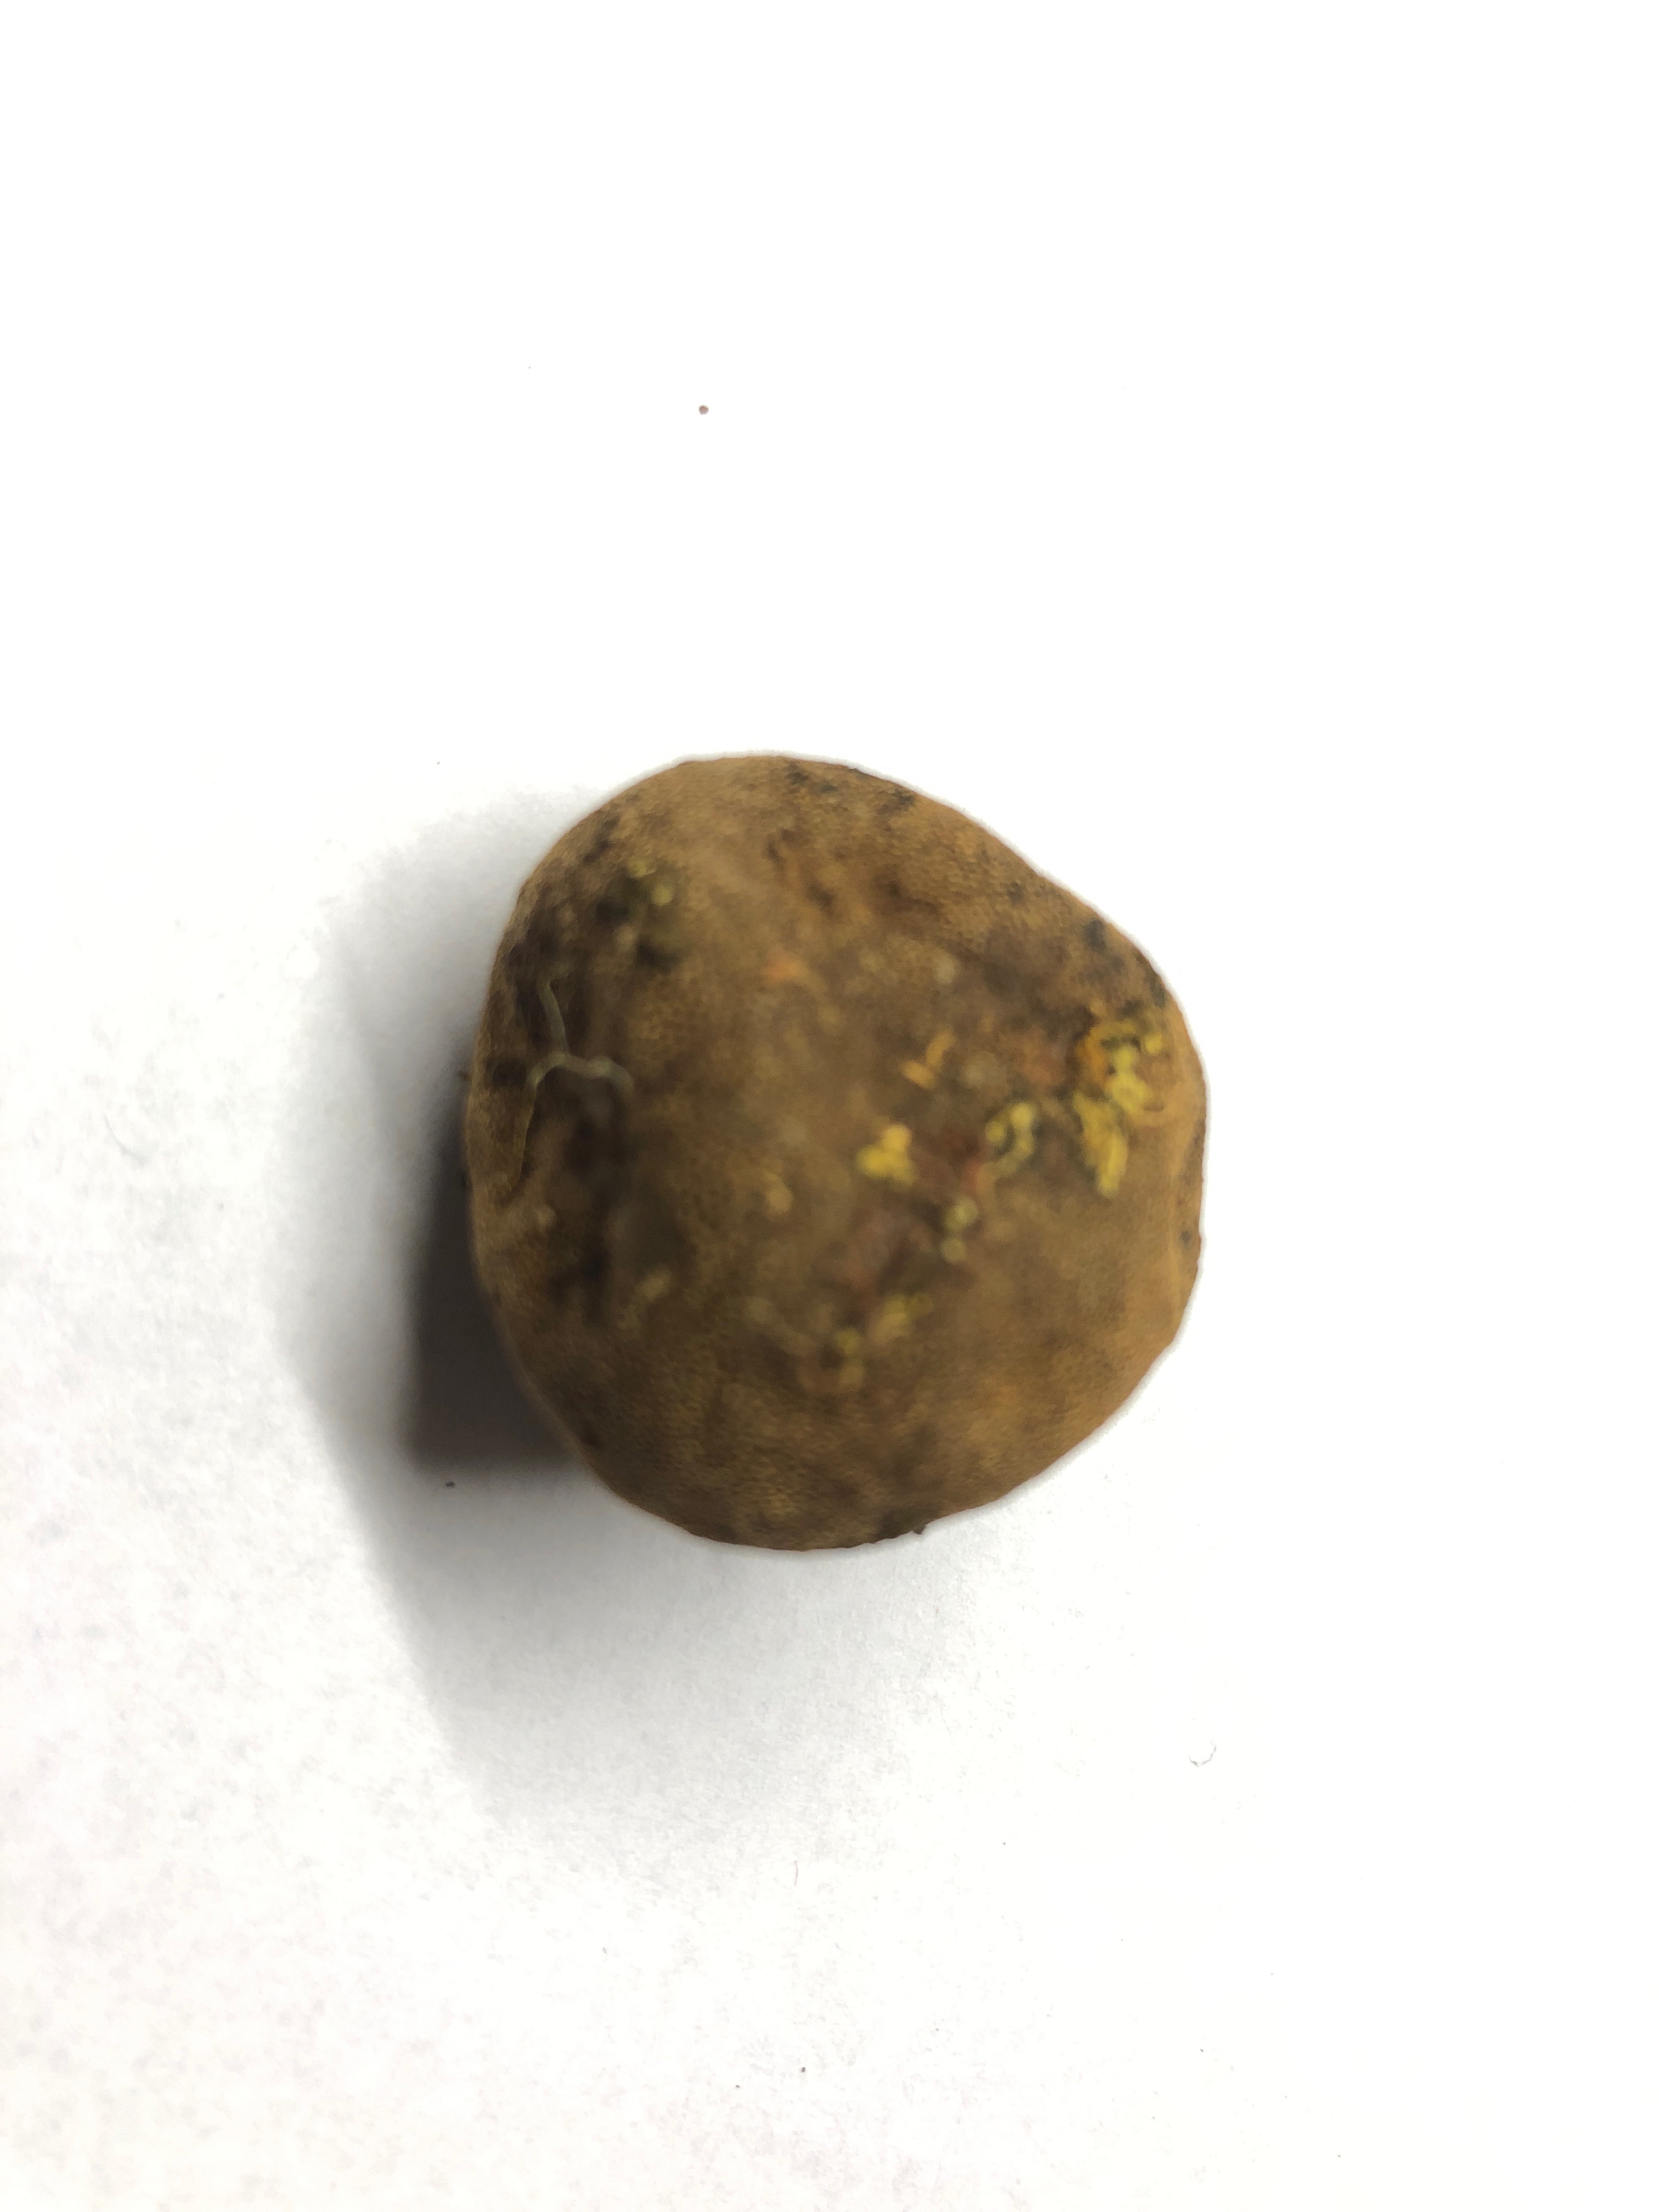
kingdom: Fungi
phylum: Ascomycota
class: Eurotiomycetes
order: Eurotiales
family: Elaphomycetaceae
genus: Elaphomyces
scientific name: Elaphomyces asperulus
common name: vinrød hjortetrøffel
